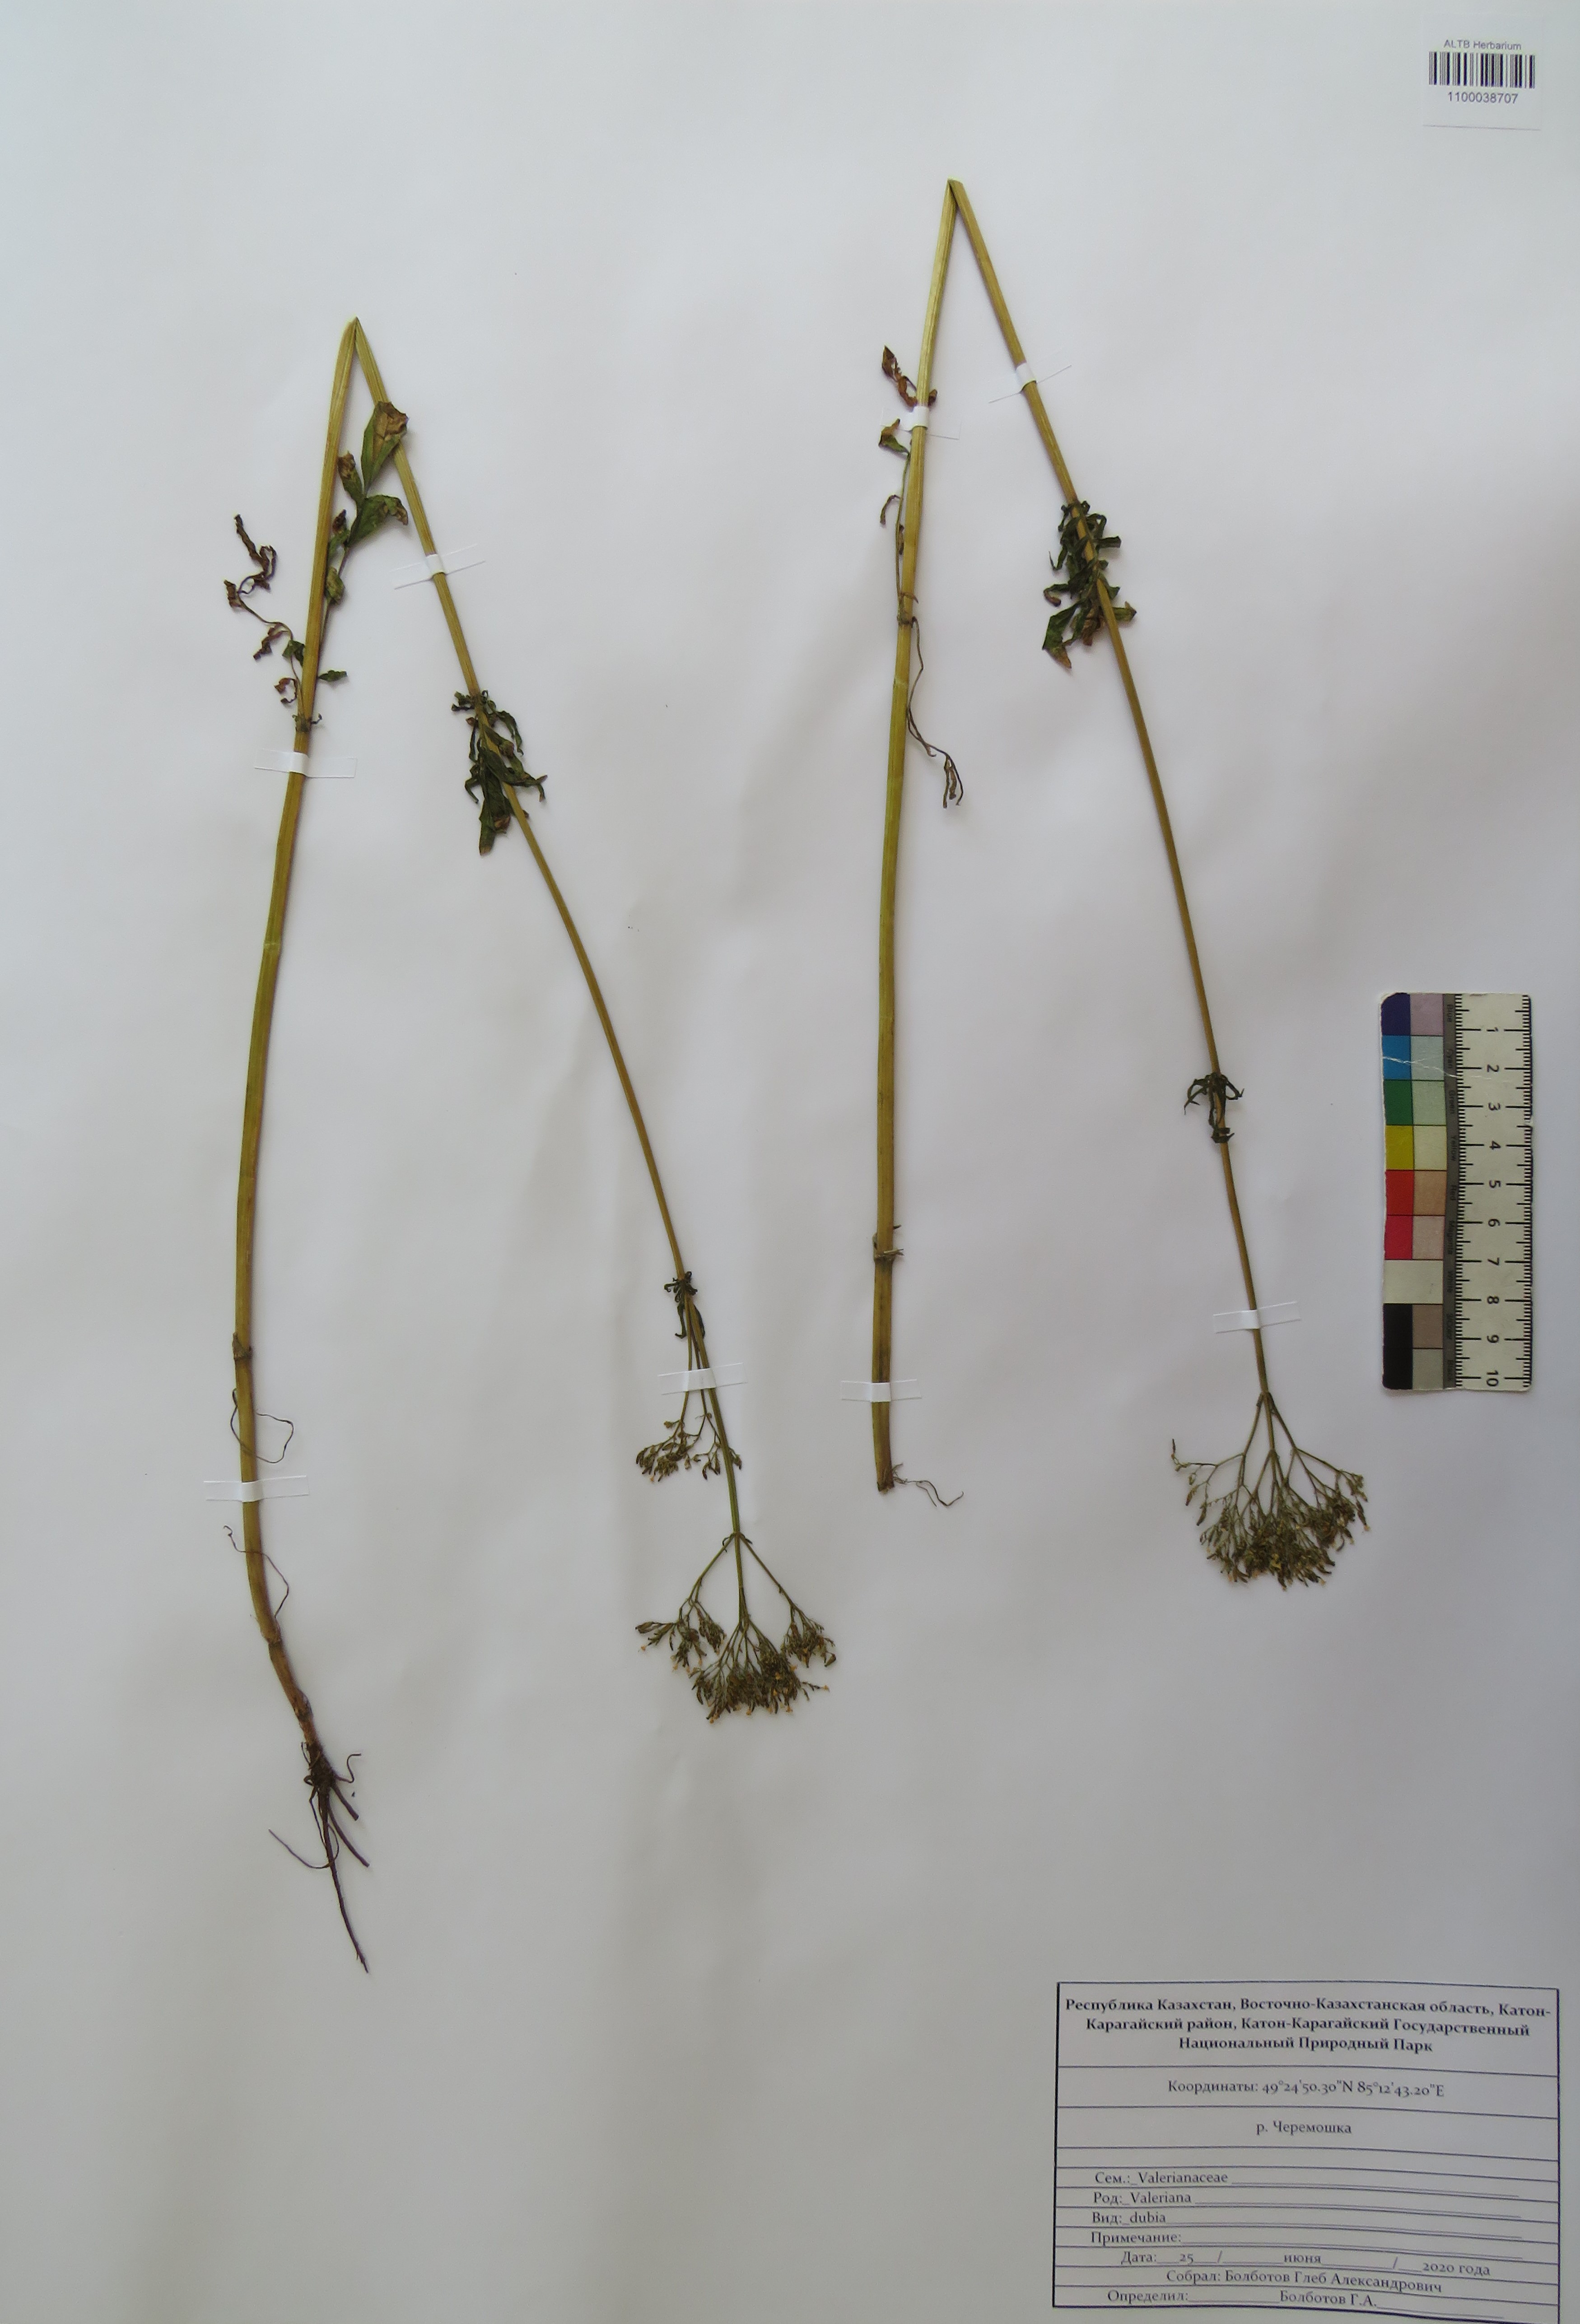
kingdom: Plantae
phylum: Tracheophyta
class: Magnoliopsida
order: Dipsacales
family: Caprifoliaceae
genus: Valeriana
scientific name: Valeriana dubia
